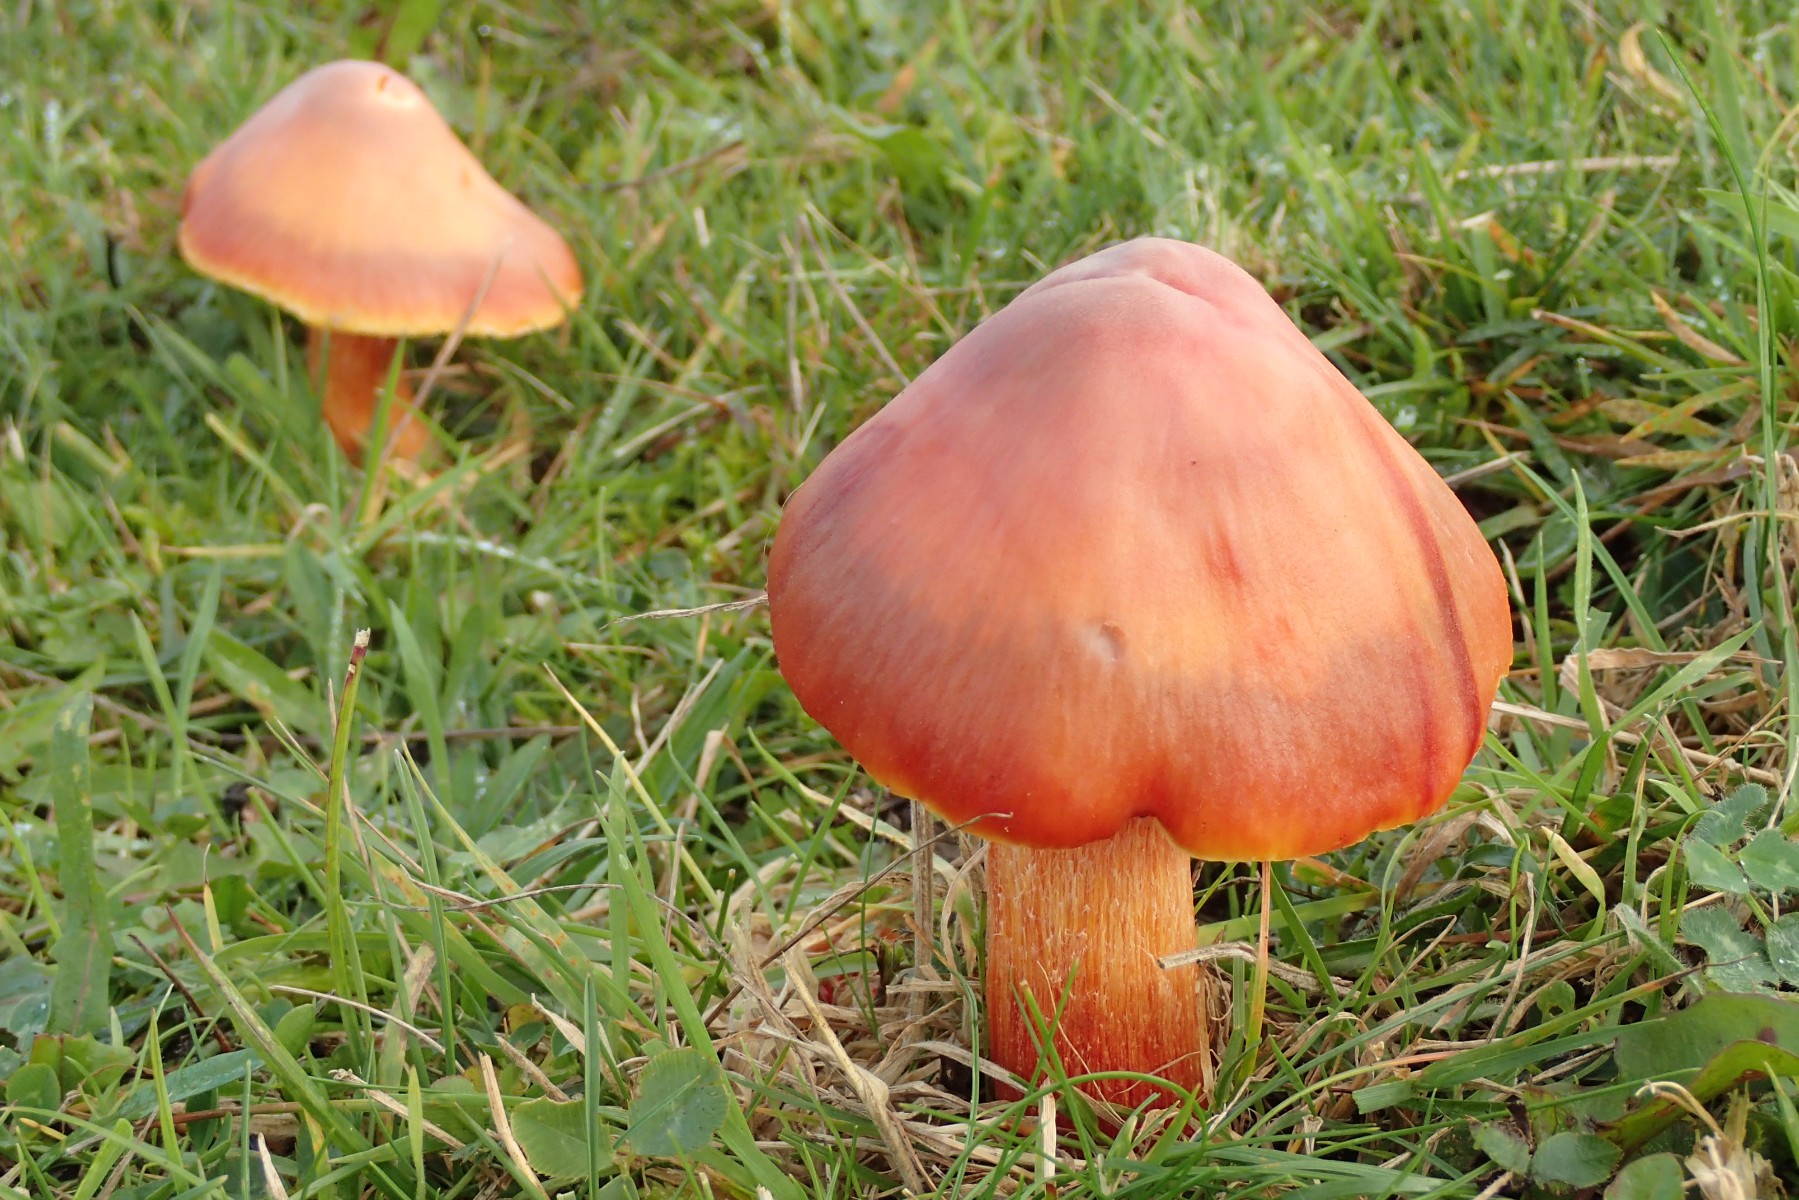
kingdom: Fungi
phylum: Basidiomycota
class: Agaricomycetes
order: Agaricales
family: Hygrophoraceae
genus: Hygrocybe
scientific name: Hygrocybe punicea
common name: skarlagen-vokshat
